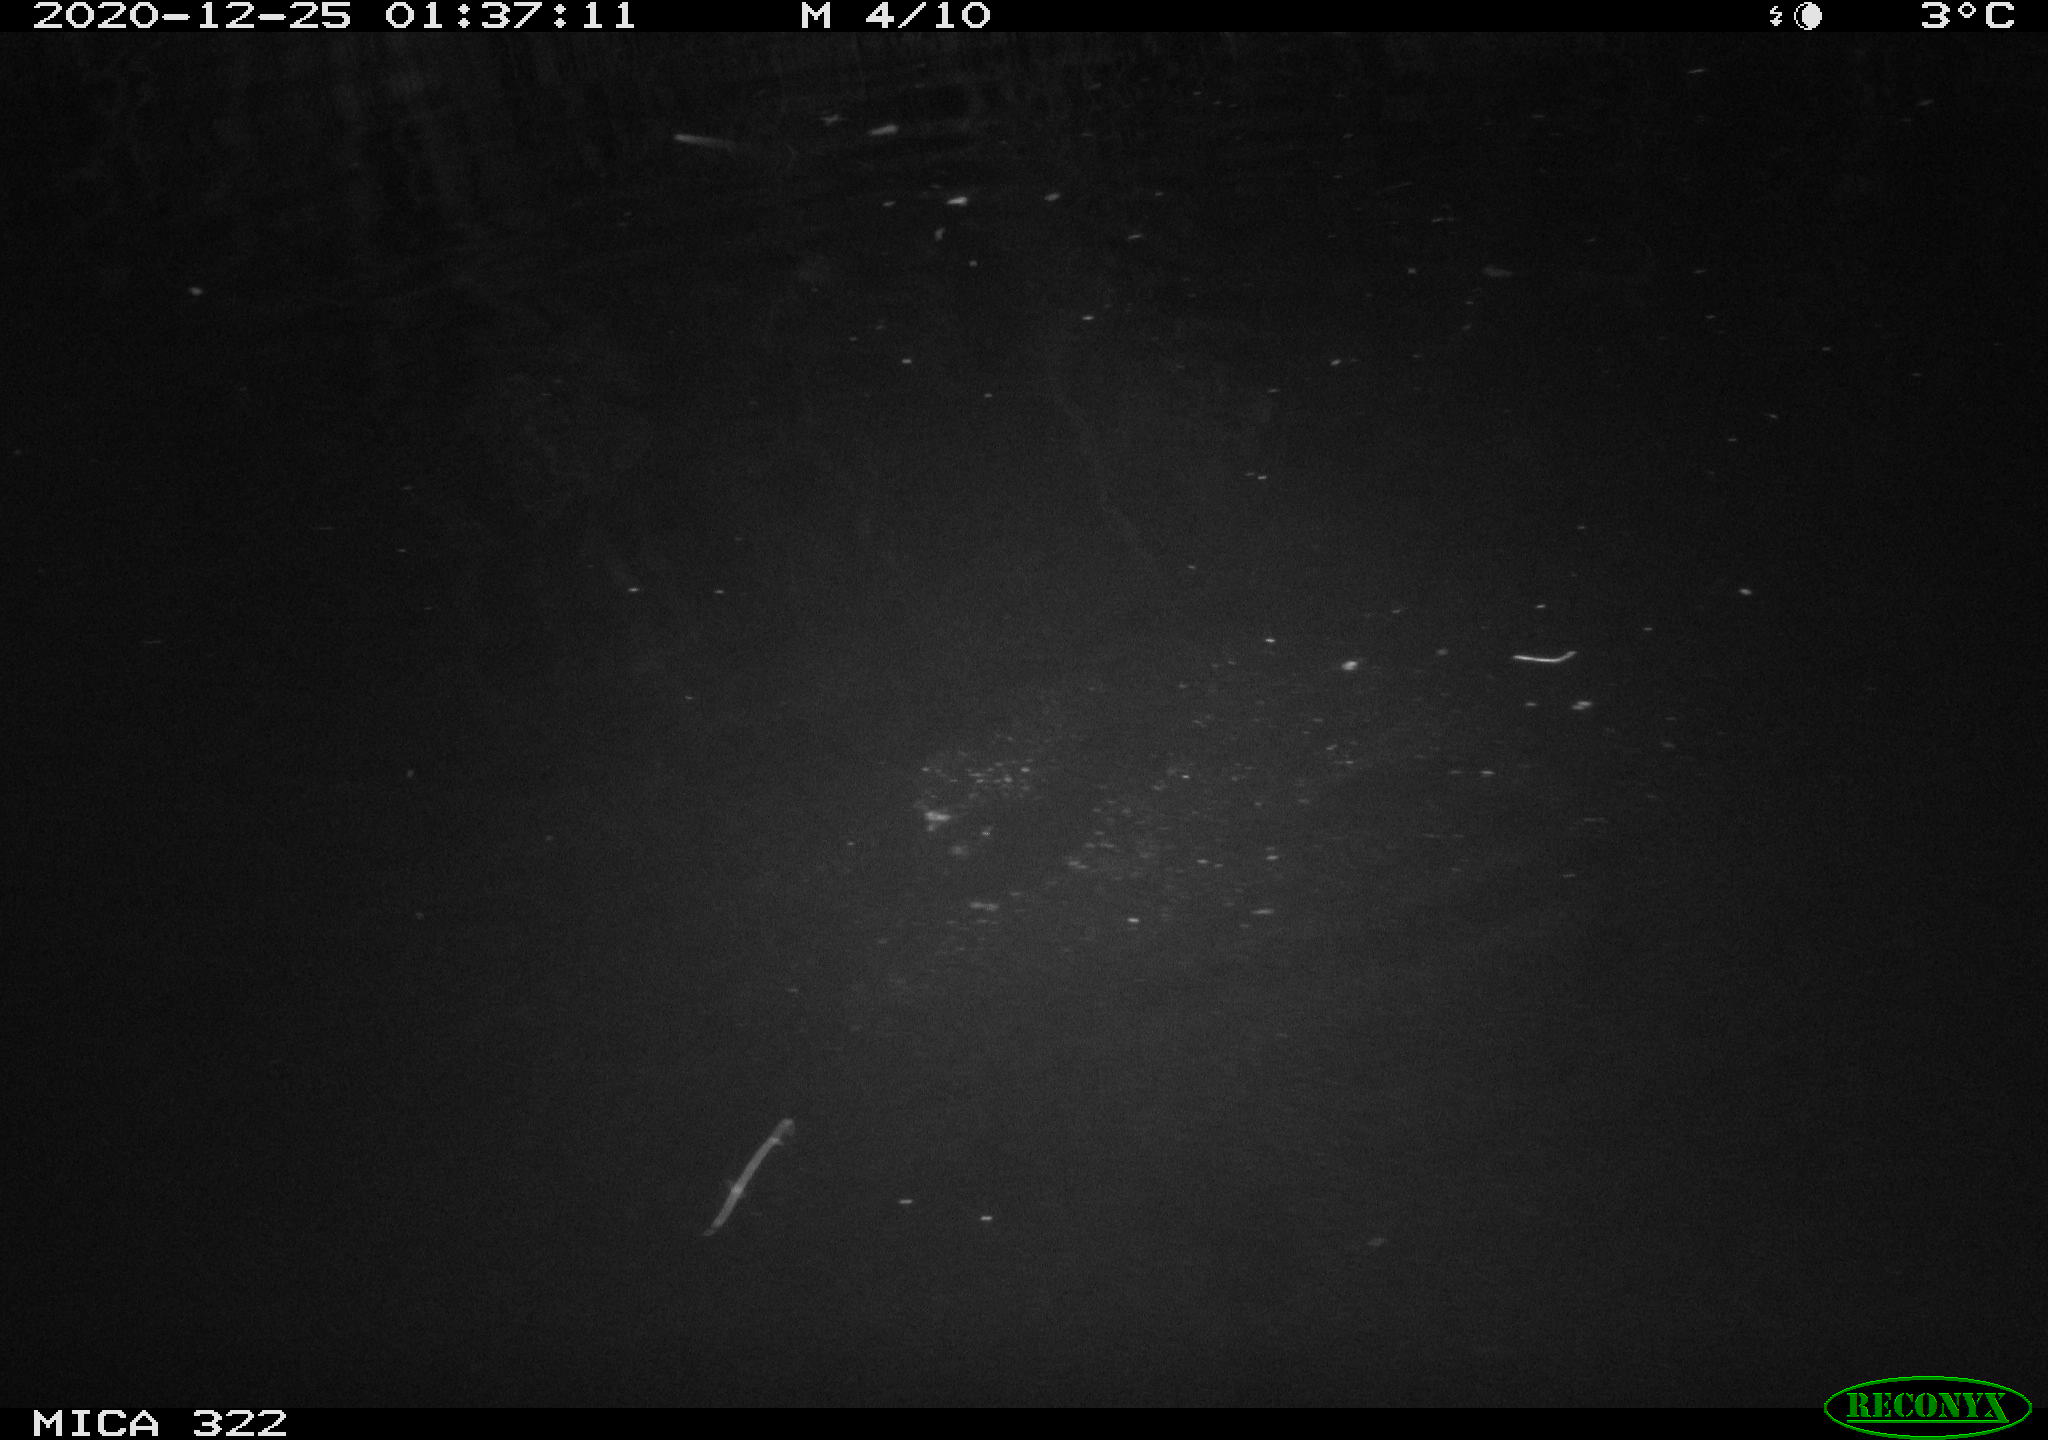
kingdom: Animalia
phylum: Chordata
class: Aves
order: Anseriformes
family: Anatidae
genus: Anas
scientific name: Anas platyrhynchos
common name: Mallard
